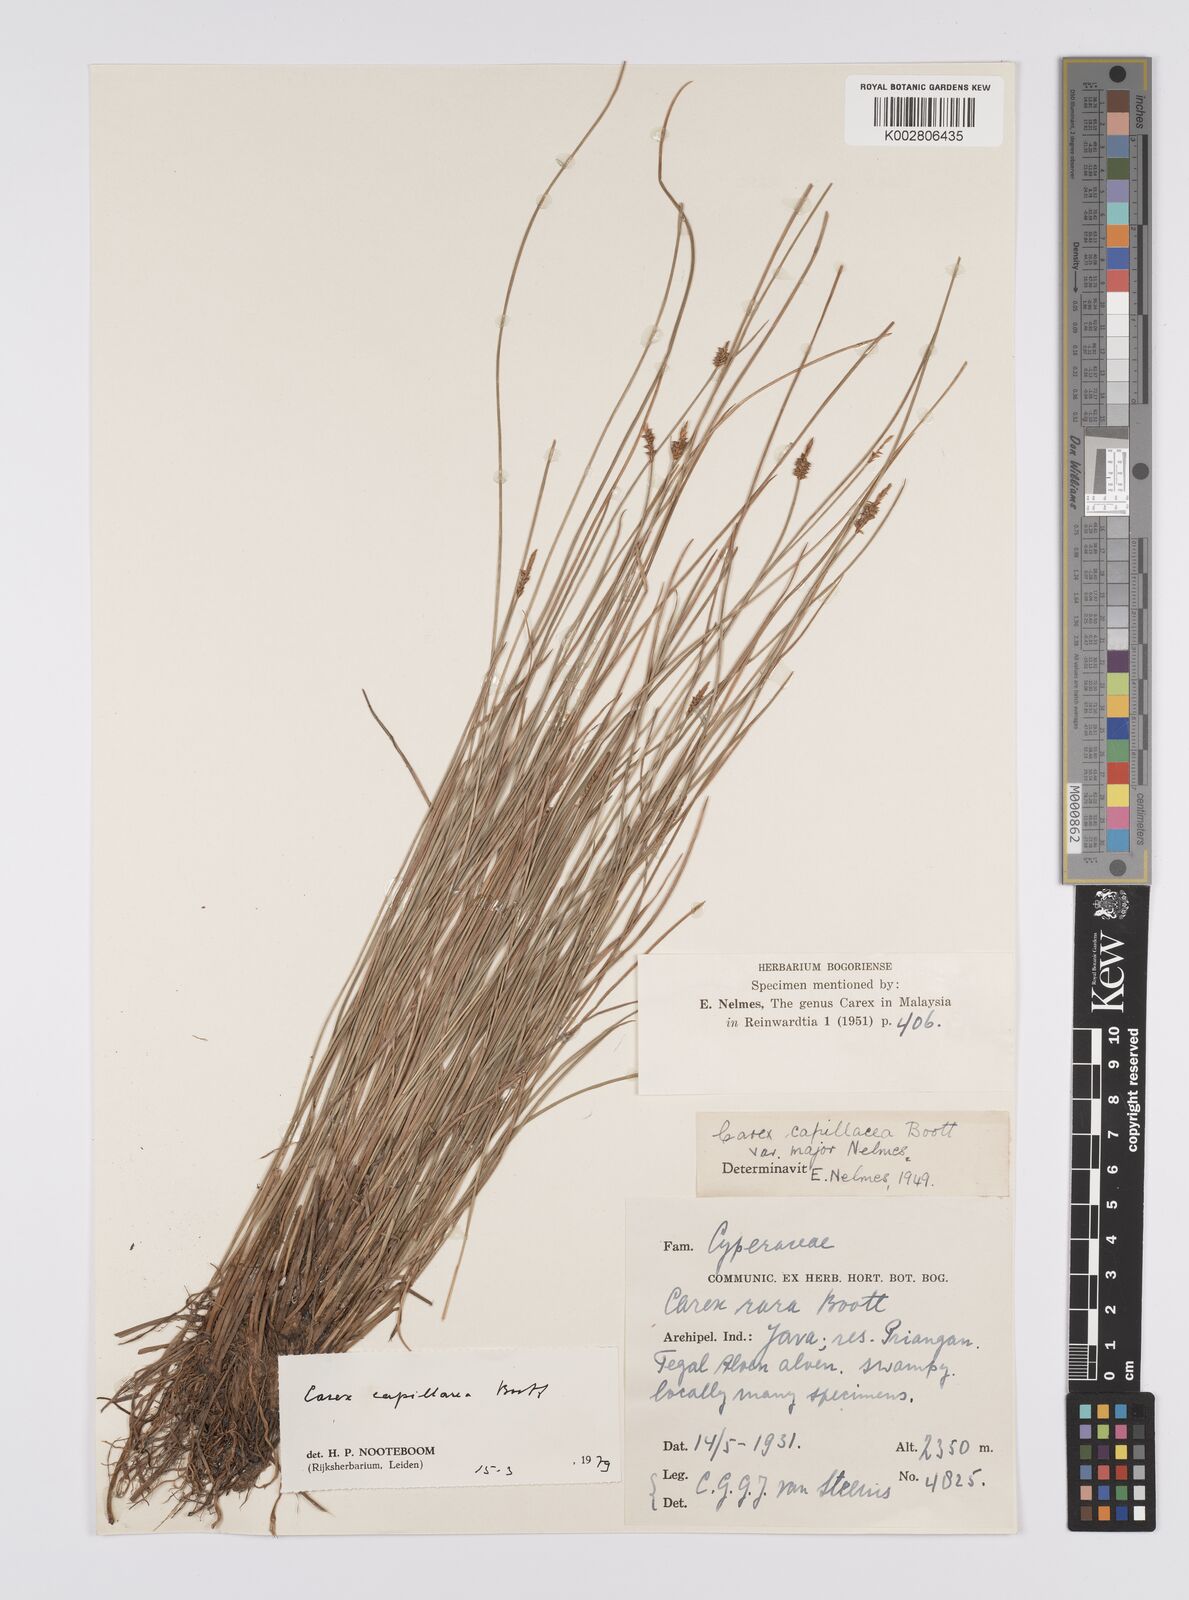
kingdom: Plantae
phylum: Tracheophyta
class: Liliopsida
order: Poales
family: Cyperaceae
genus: Carex
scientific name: Carex capillacea
